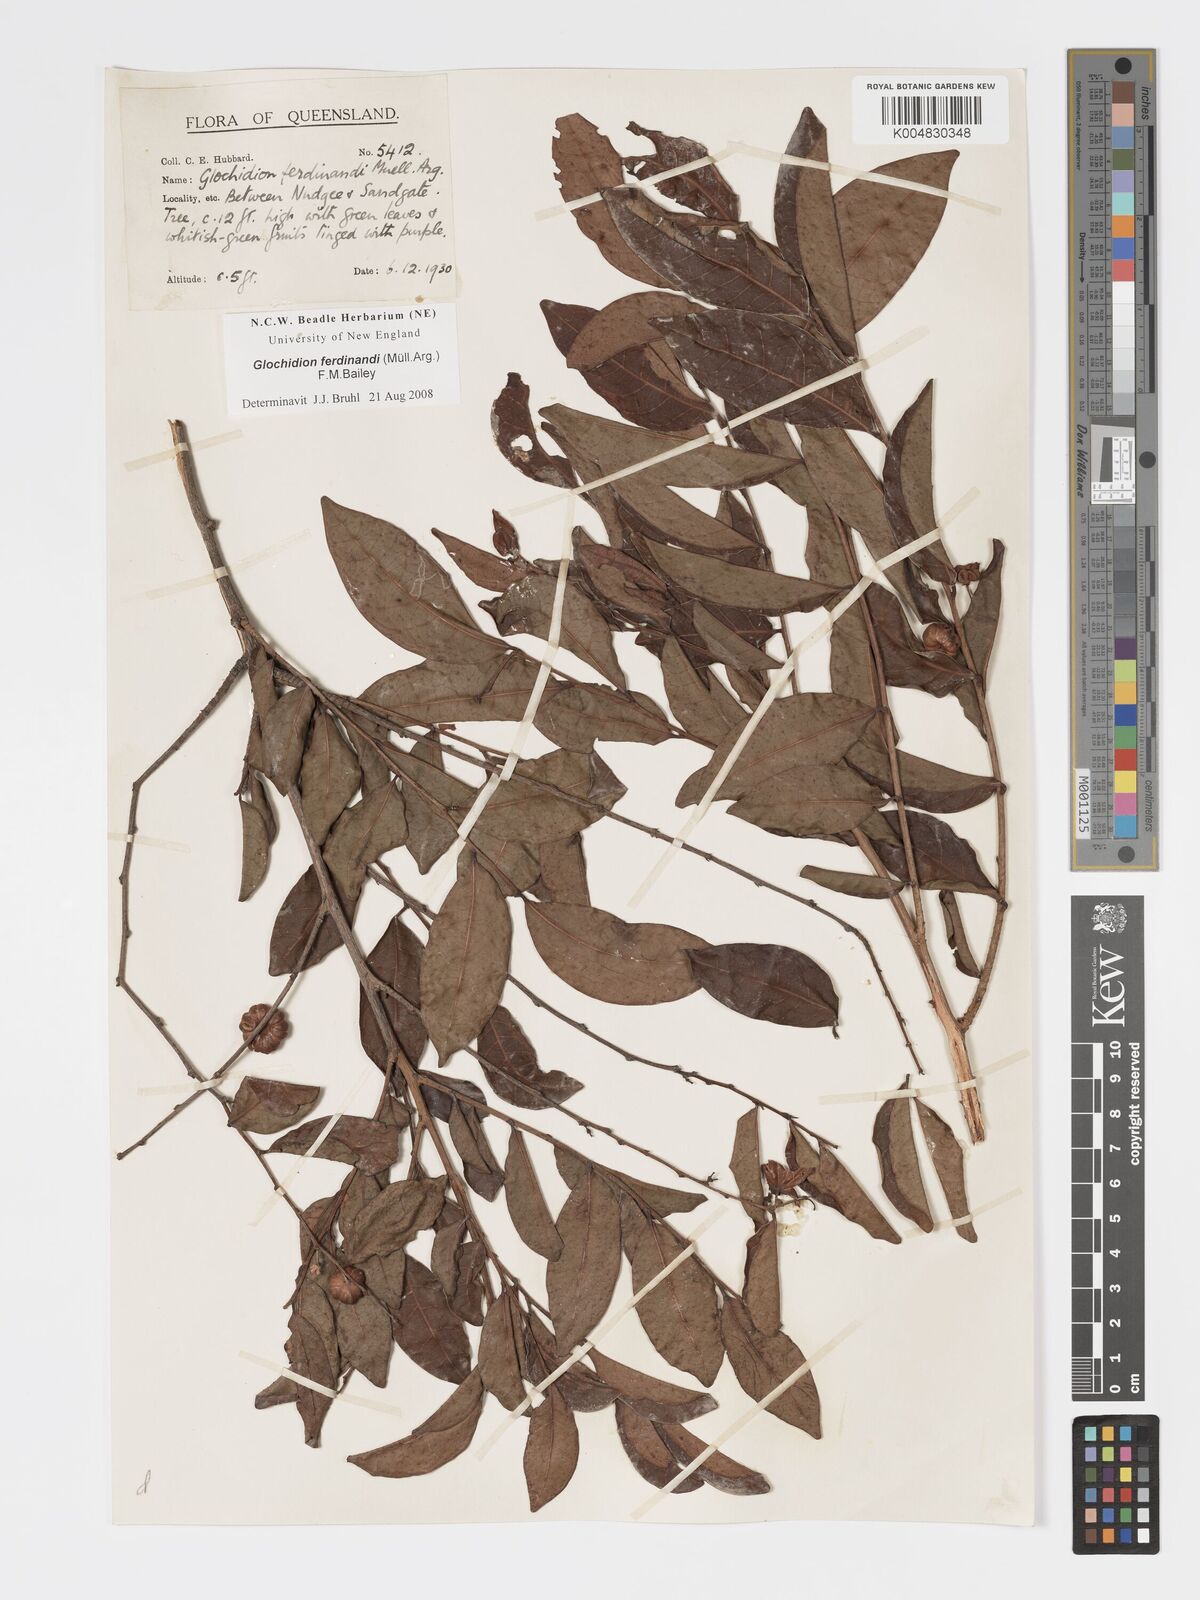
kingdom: Plantae
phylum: Tracheophyta
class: Magnoliopsida
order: Malpighiales
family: Phyllanthaceae
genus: Glochidion
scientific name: Glochidion ferdinandi
